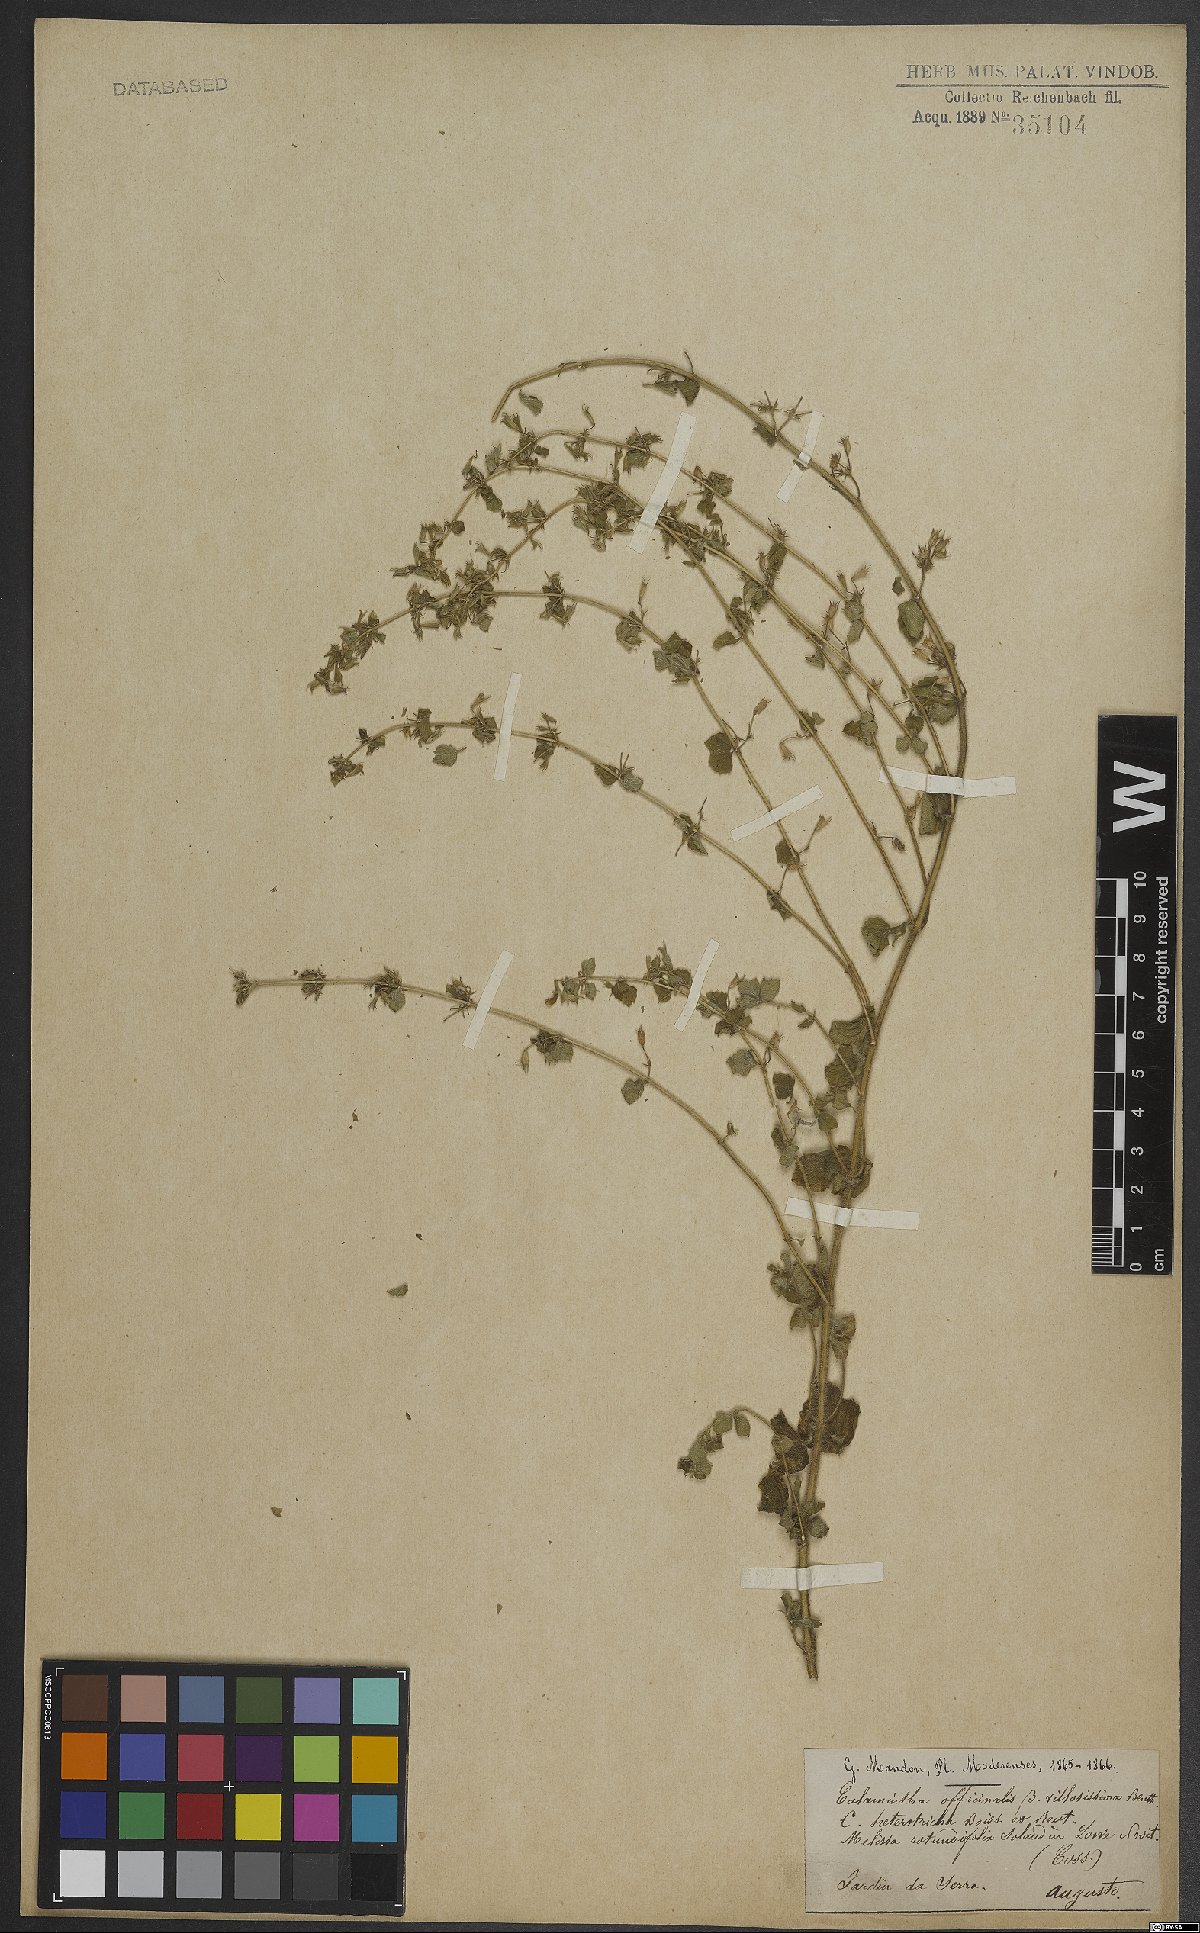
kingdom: Plantae
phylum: Tracheophyta
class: Magnoliopsida
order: Lamiales
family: Lamiaceae
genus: Clinopodium
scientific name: Clinopodium heterotrichum
